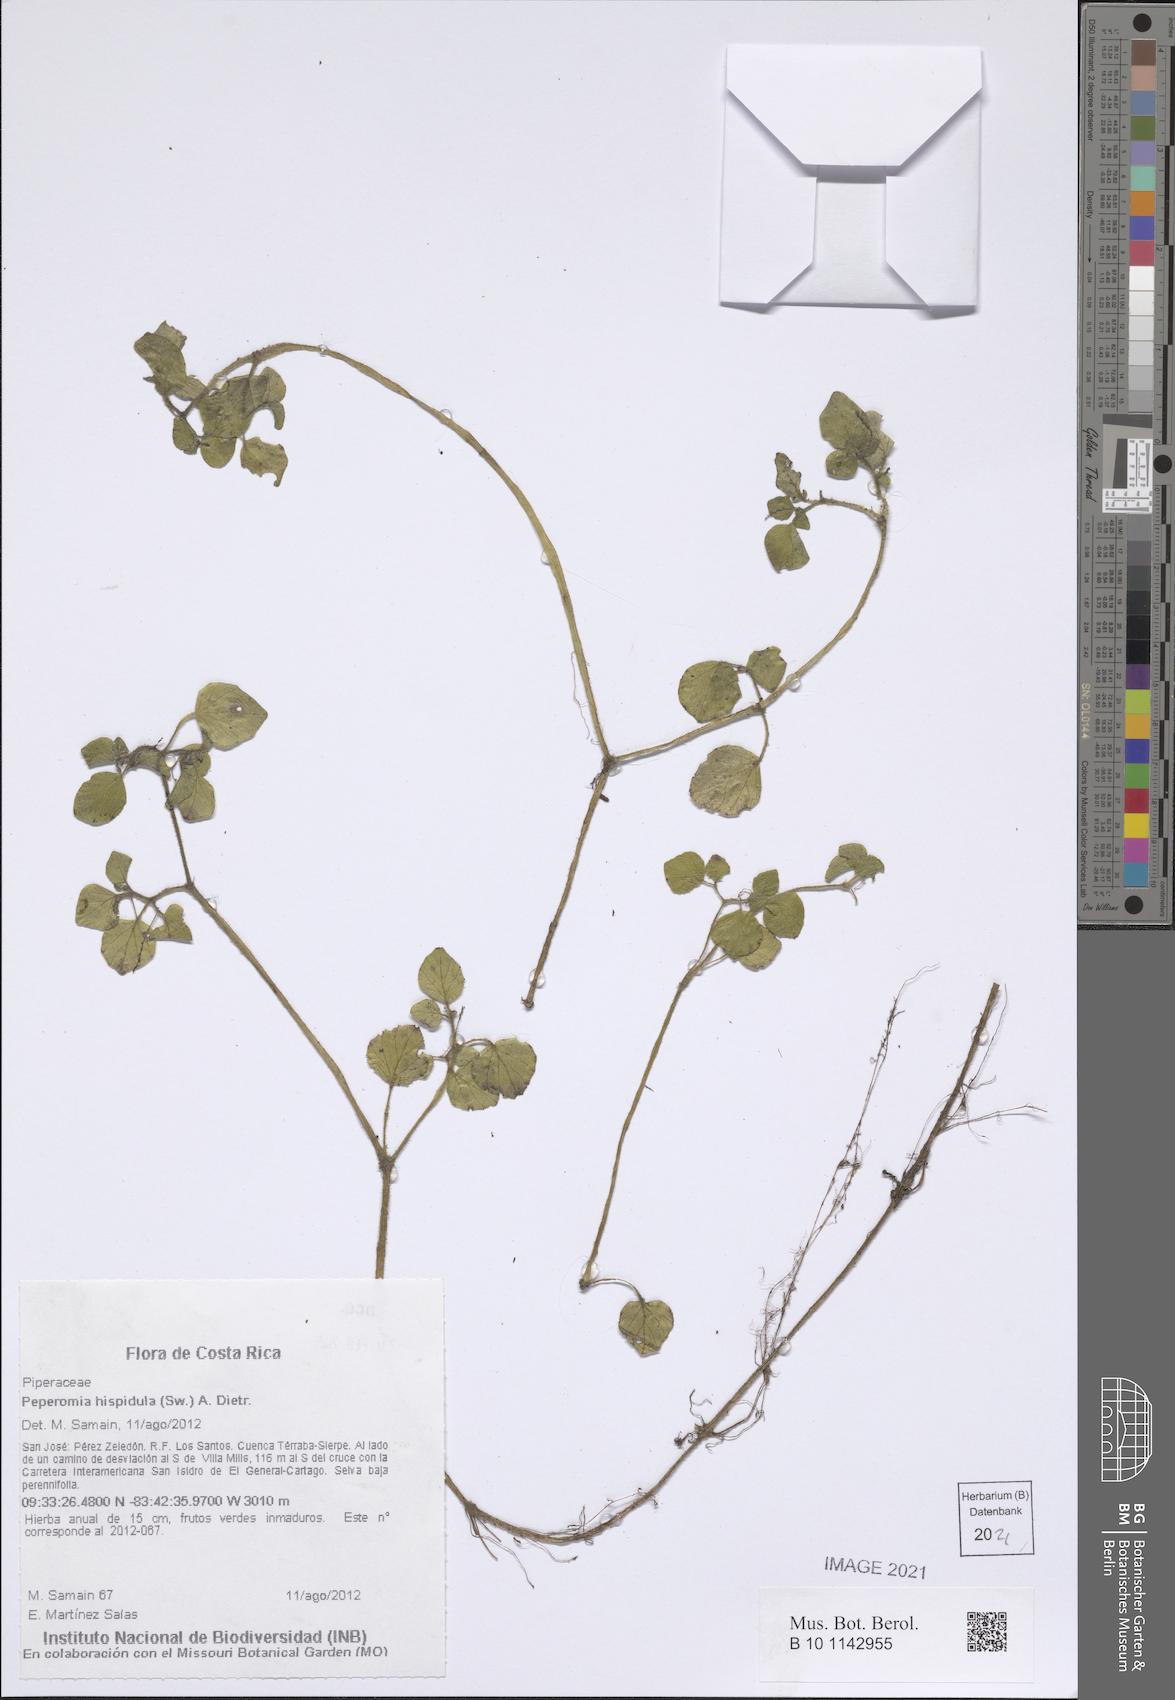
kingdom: Plantae
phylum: Tracheophyta
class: Magnoliopsida
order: Piperales
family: Piperaceae
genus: Peperomia
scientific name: Peperomia hispidula
